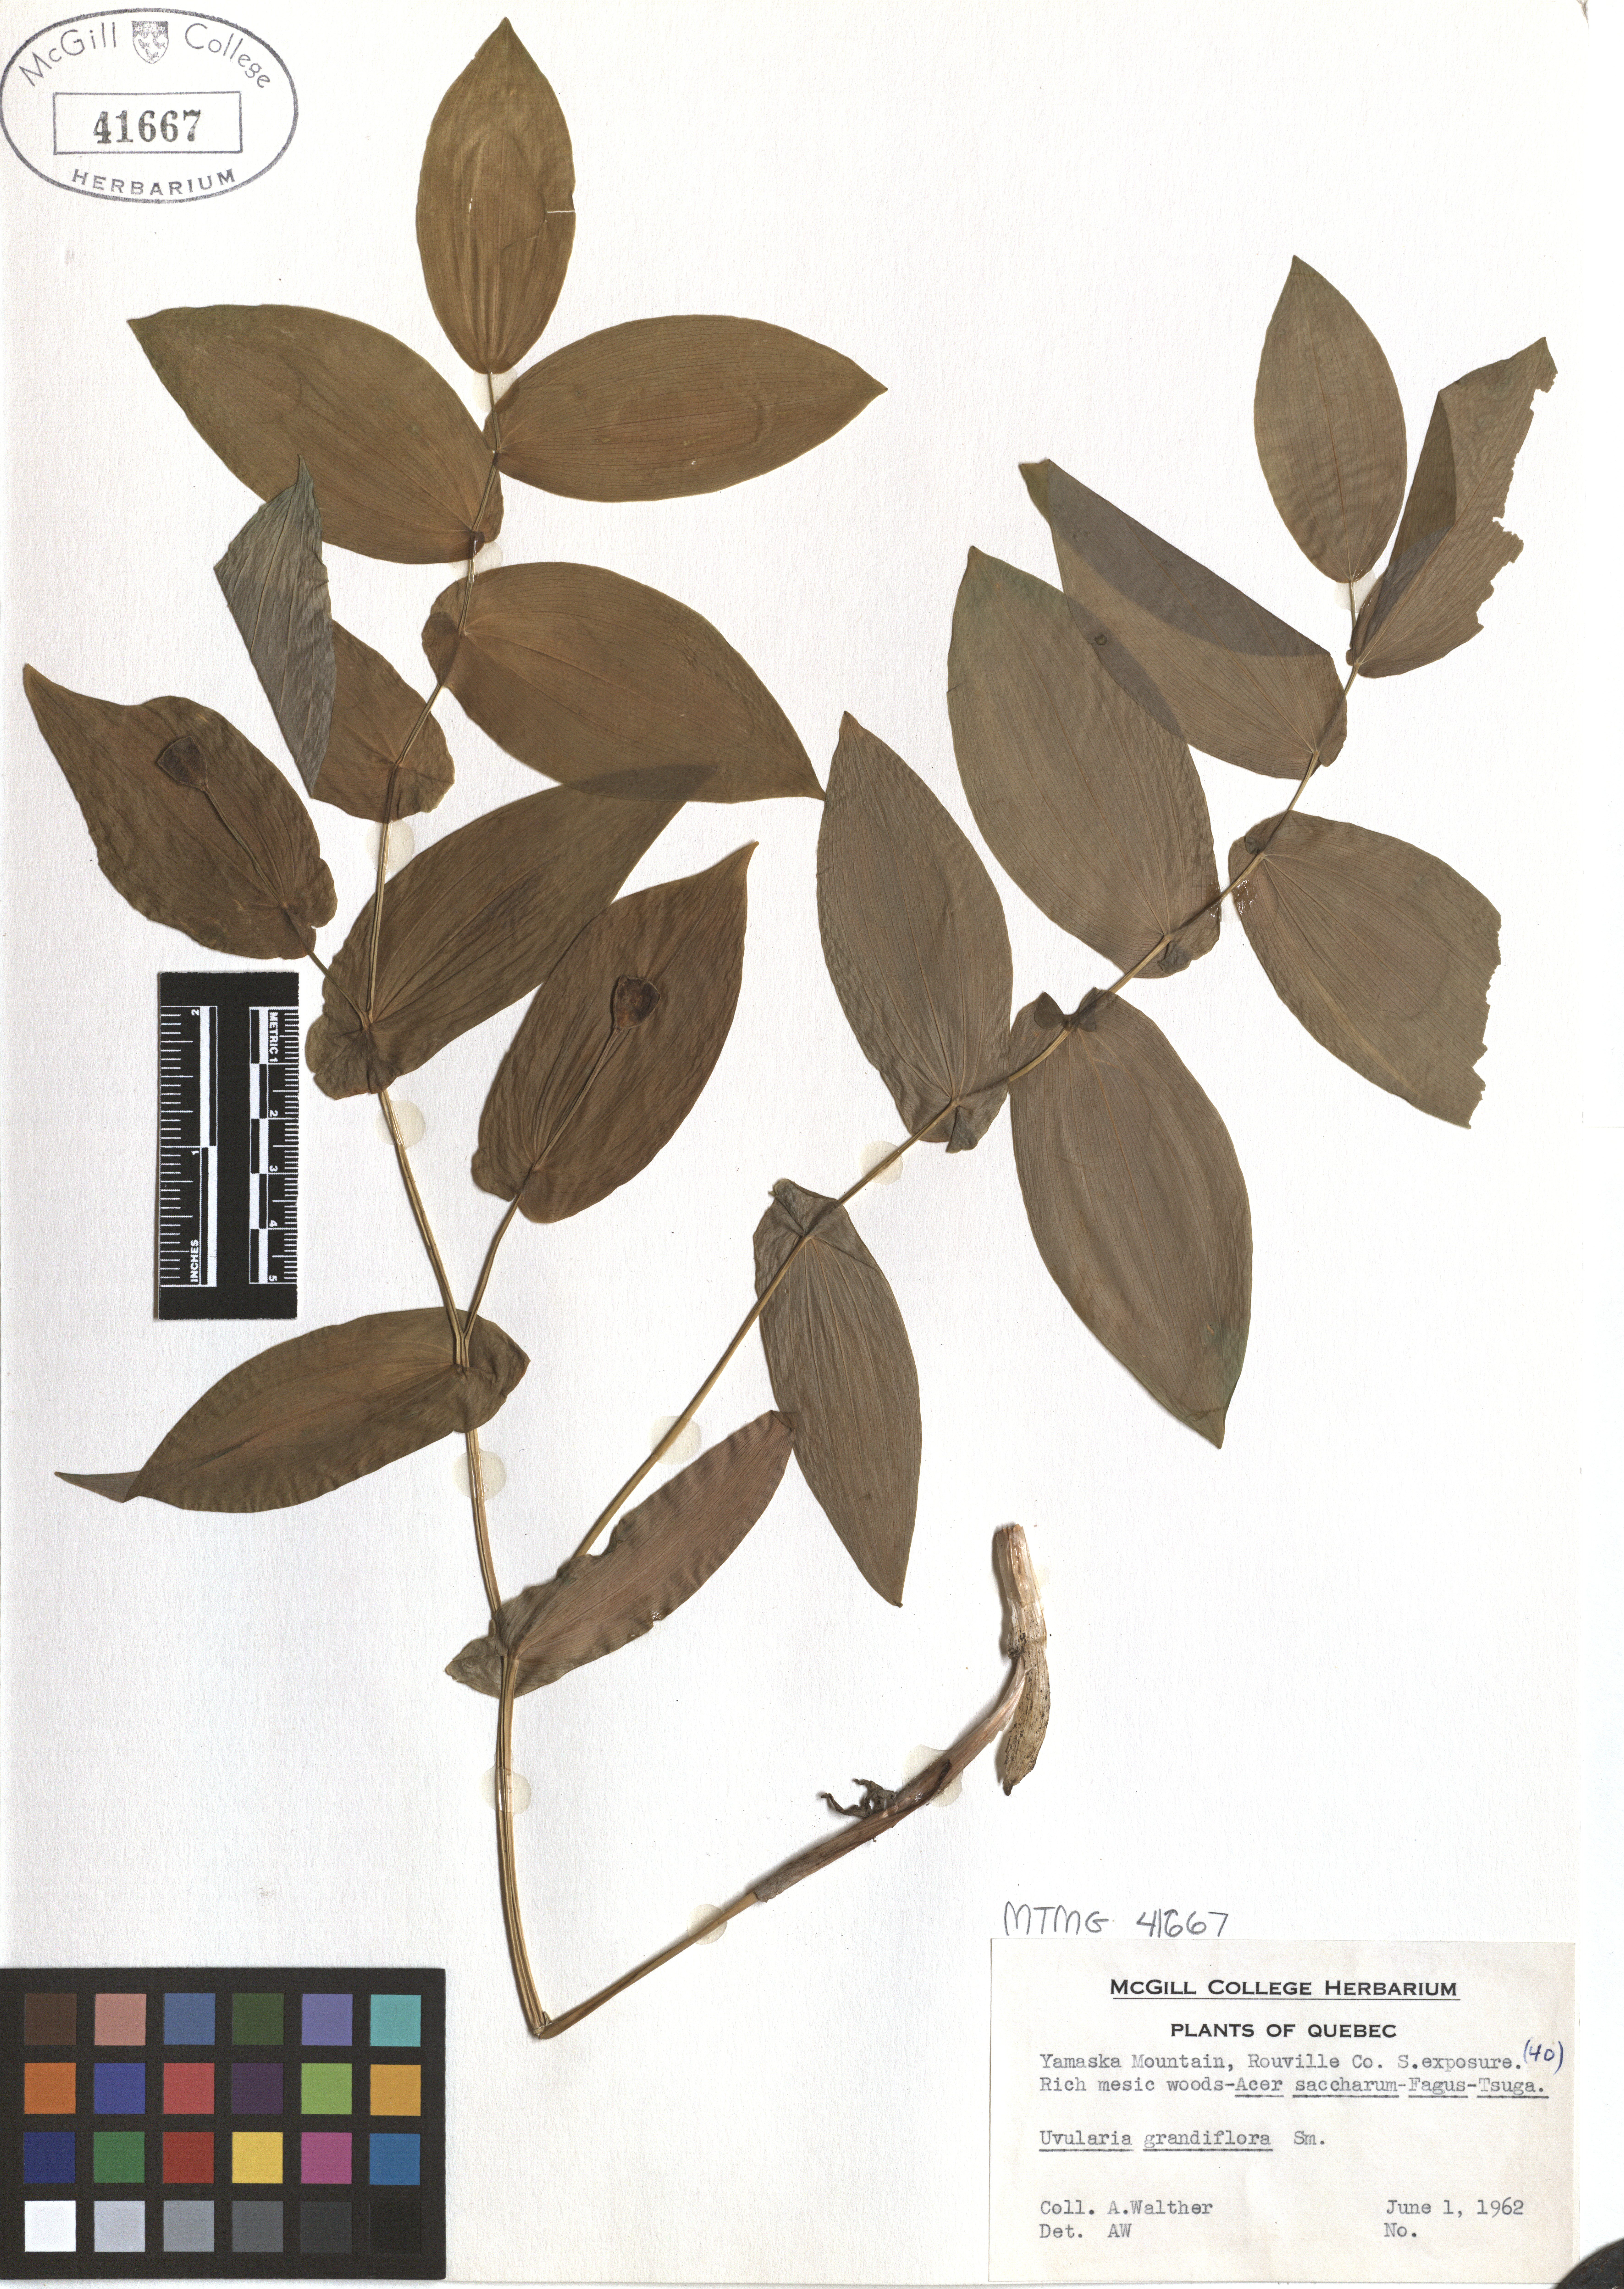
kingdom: Plantae
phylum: Tracheophyta
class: Liliopsida
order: Liliales
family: Colchicaceae
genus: Uvularia
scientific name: Uvularia grandiflora
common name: Bellwort
